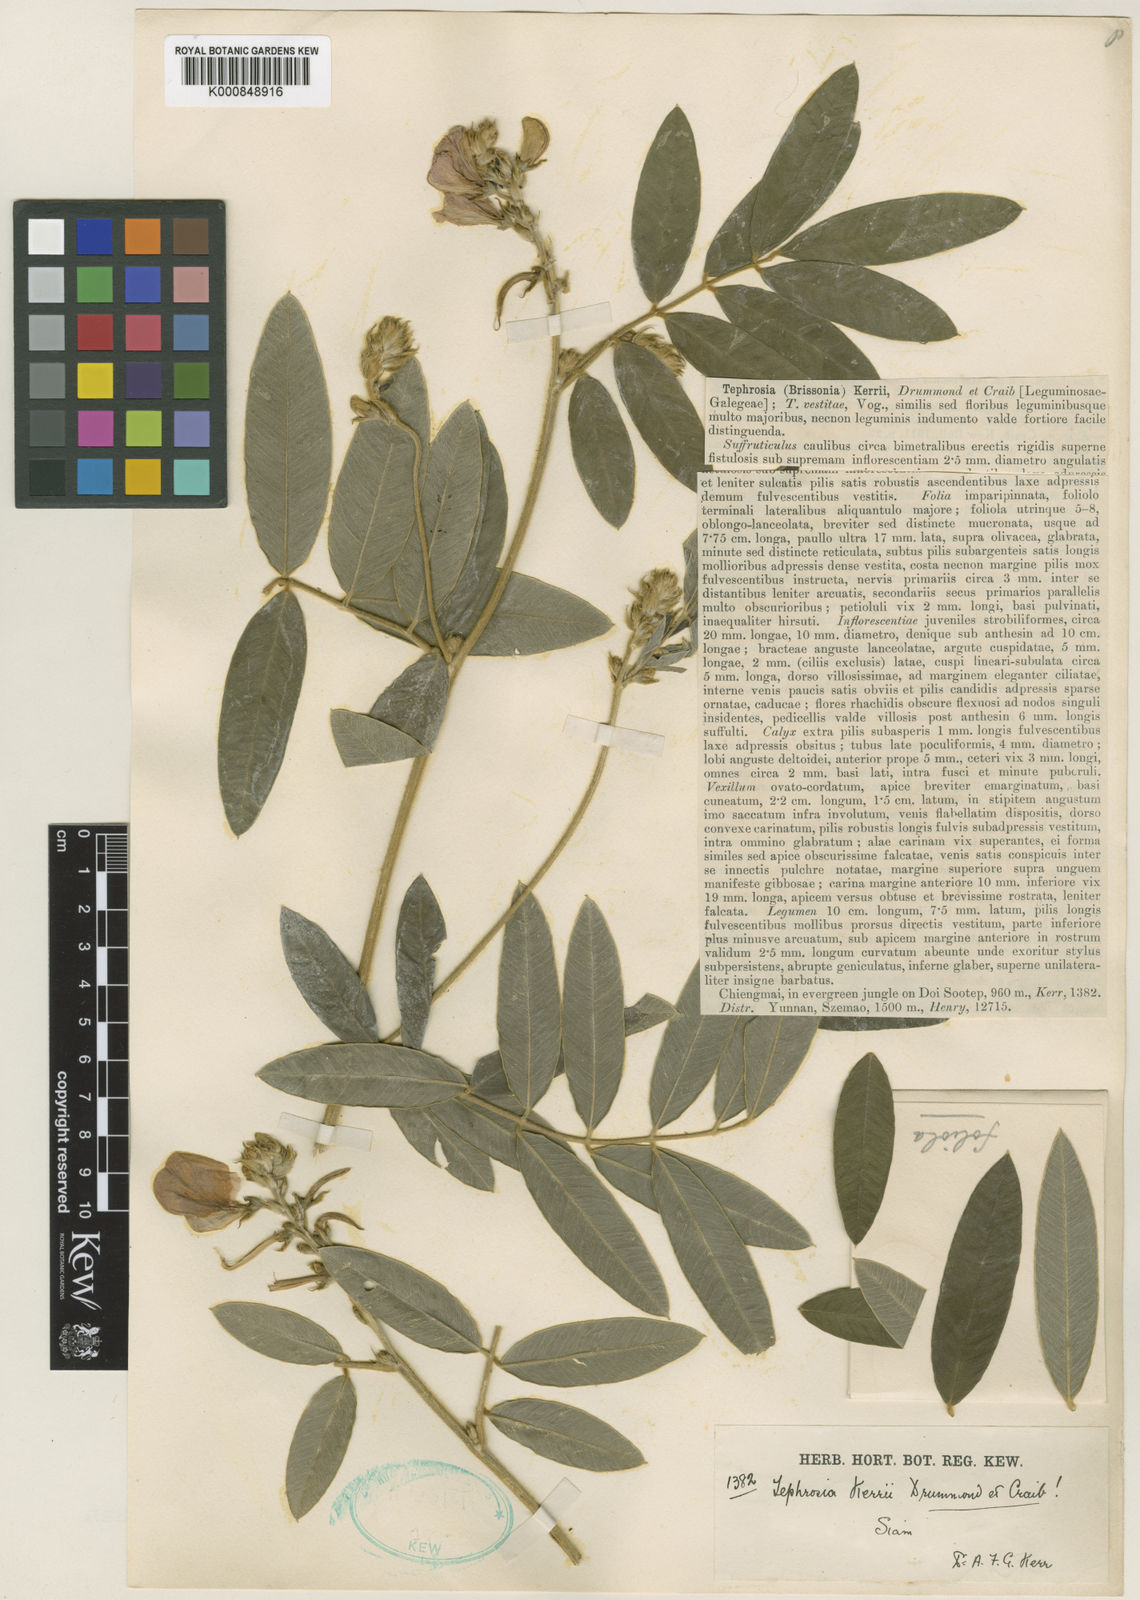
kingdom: Plantae
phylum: Tracheophyta
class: Magnoliopsida
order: Fabales
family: Fabaceae
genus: Tephrosia
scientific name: Tephrosia kerrii
